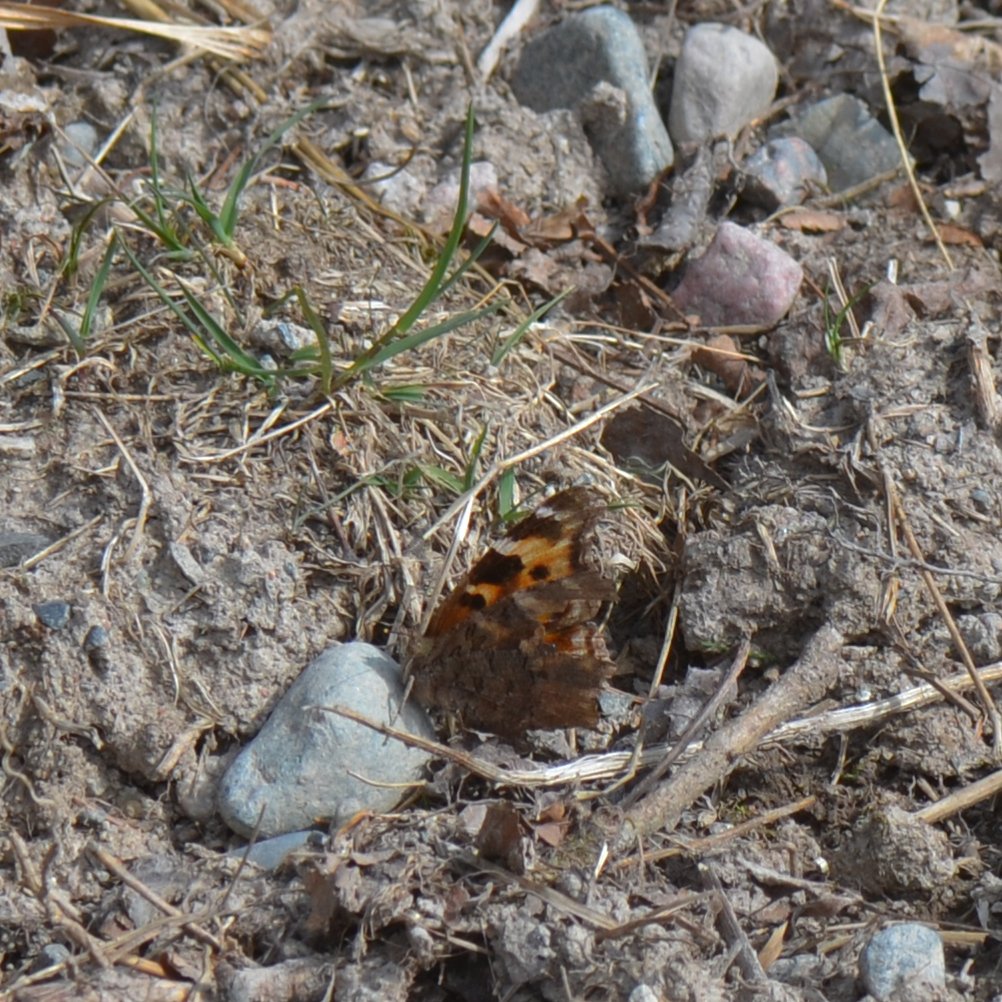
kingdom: Animalia
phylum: Arthropoda
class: Insecta
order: Lepidoptera
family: Nymphalidae
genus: Polygonia
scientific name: Polygonia vaualbum
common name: Compton Tortoiseshell
